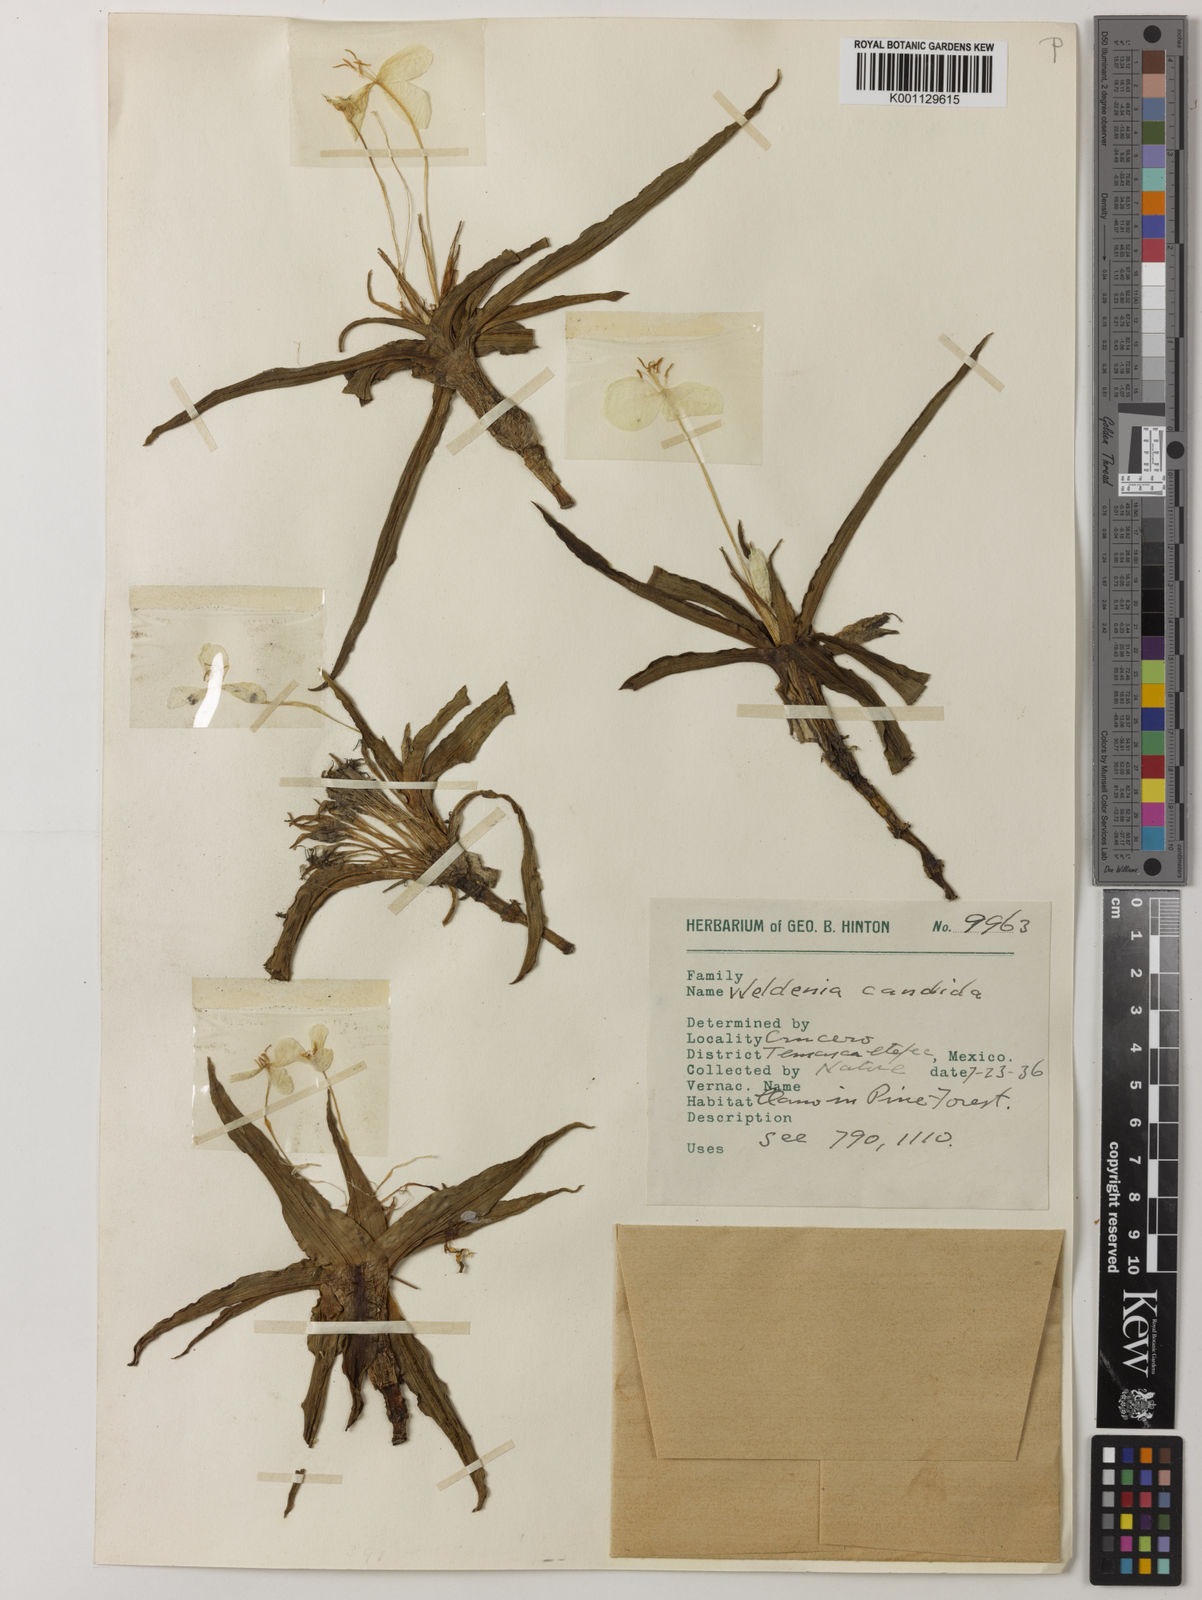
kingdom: Plantae
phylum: Tracheophyta
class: Liliopsida
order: Commelinales
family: Commelinaceae
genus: Weldenia
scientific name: Weldenia candida
